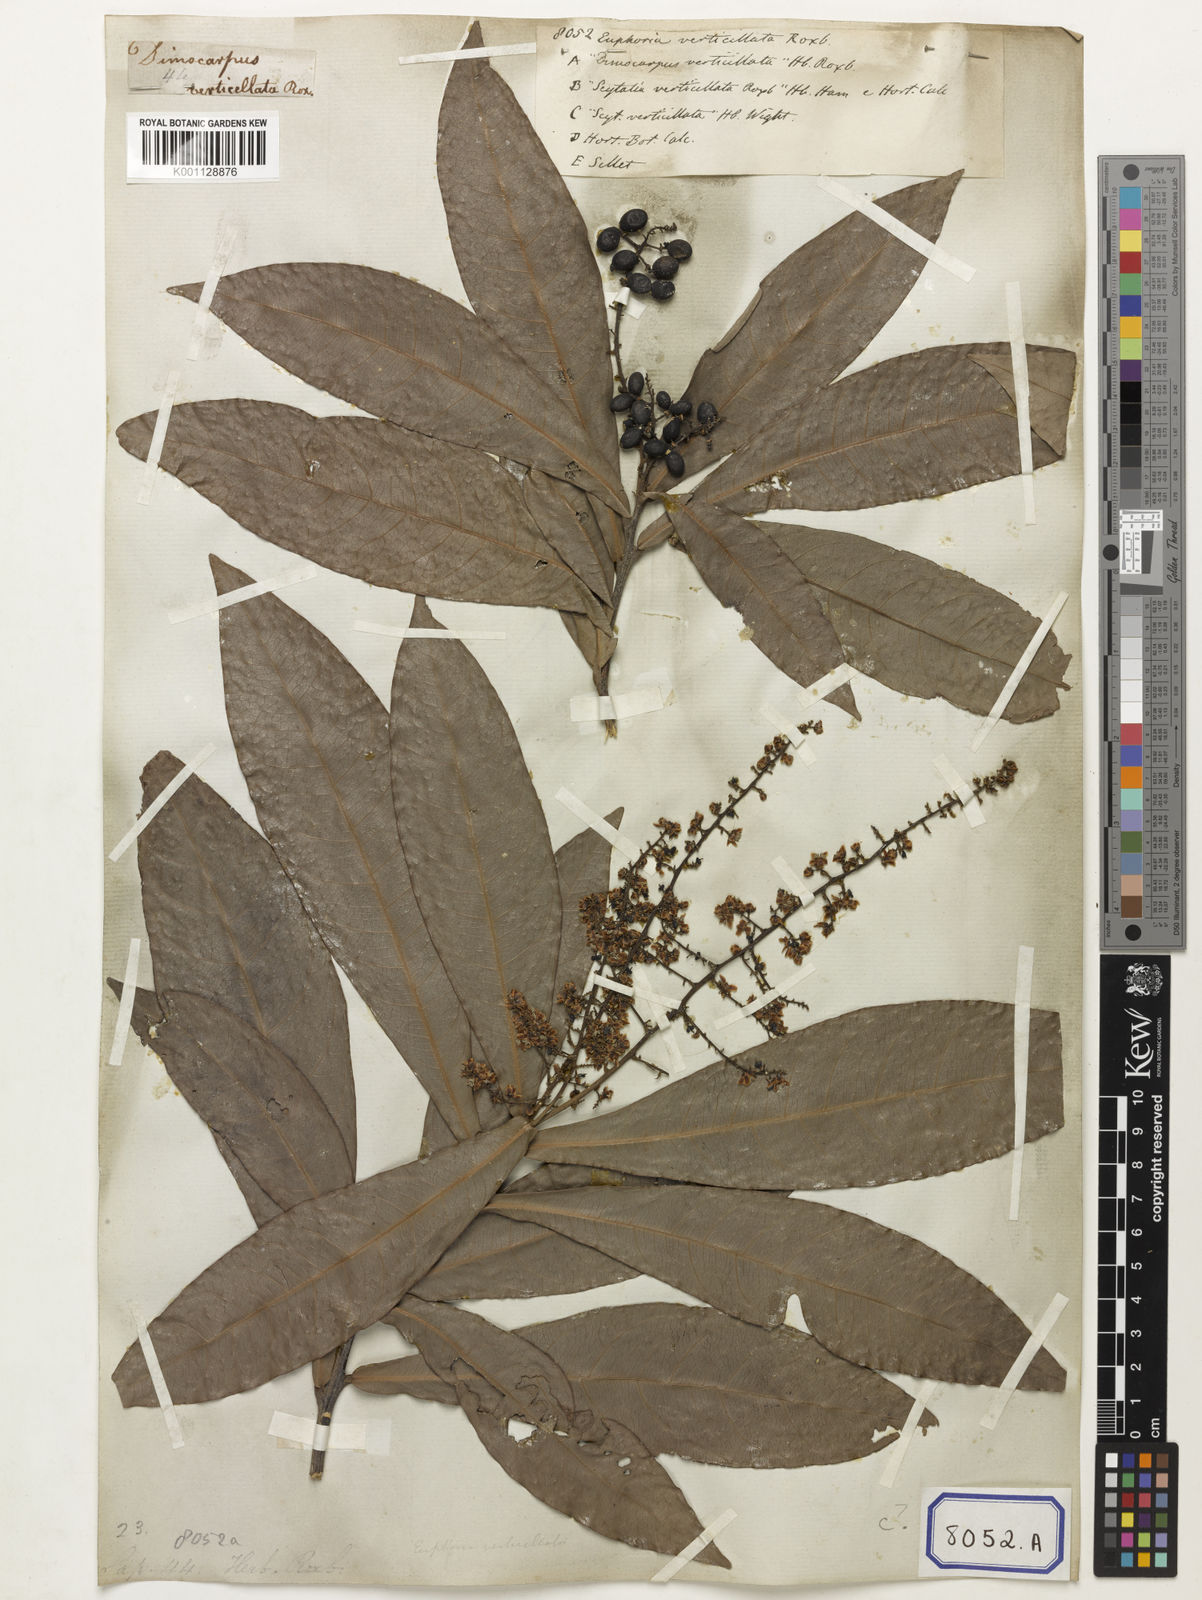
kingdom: Plantae
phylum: Tracheophyta
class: Magnoliopsida
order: Sapindales
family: Sapindaceae
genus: Lepisanthes
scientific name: Lepisanthes senegalensis
